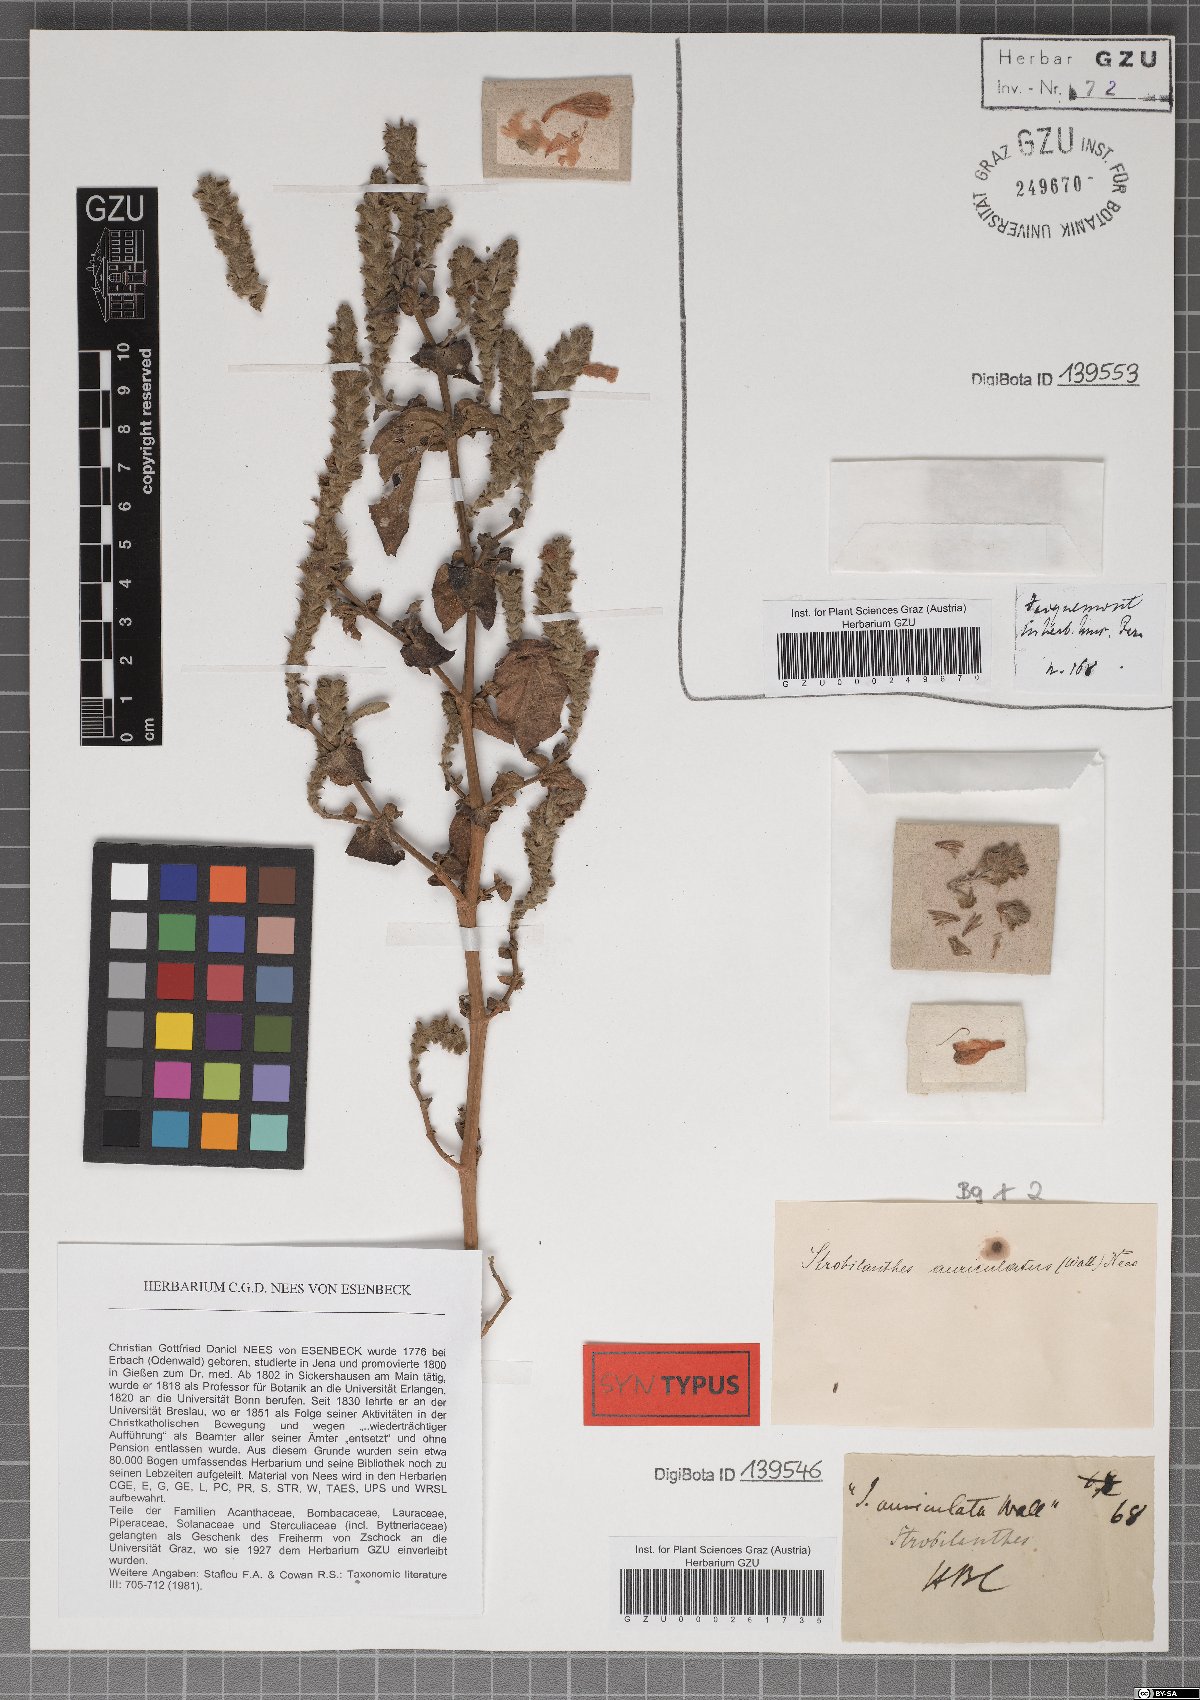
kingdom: Plantae
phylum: Tracheophyta
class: Magnoliopsida
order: Lamiales
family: Acanthaceae
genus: Strobilanthes
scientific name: Strobilanthes auriculata
